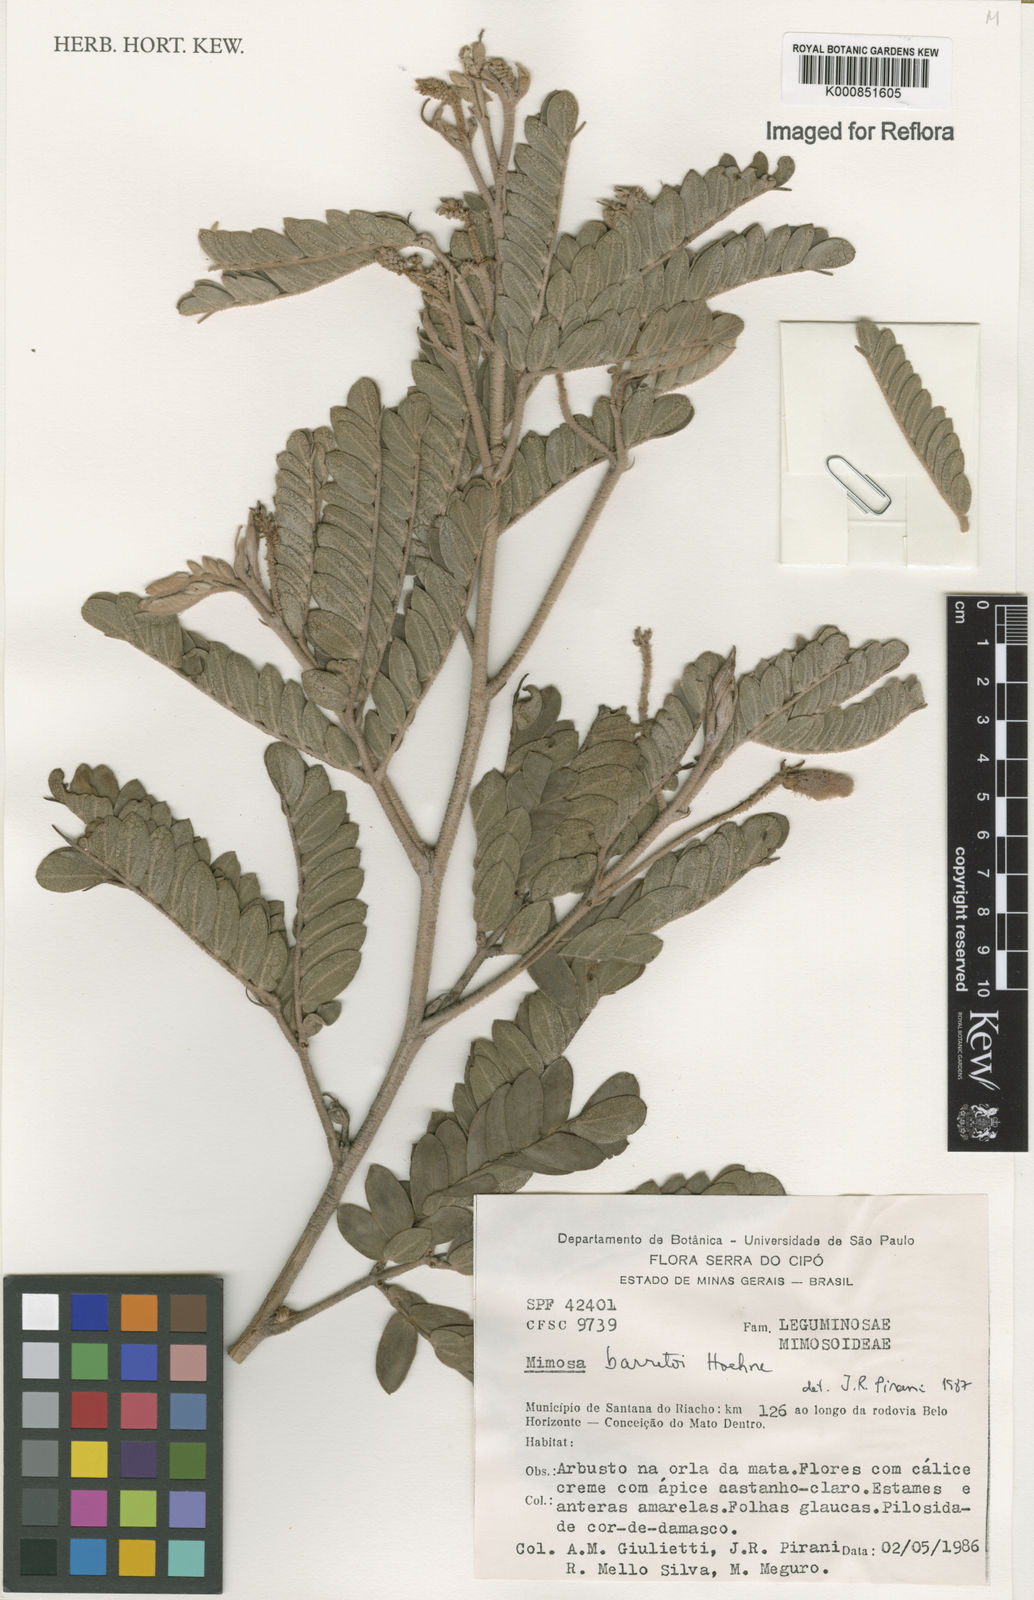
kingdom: Plantae
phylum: Tracheophyta
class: Magnoliopsida
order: Fabales
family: Fabaceae
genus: Mimosa
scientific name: Mimosa barretoi
